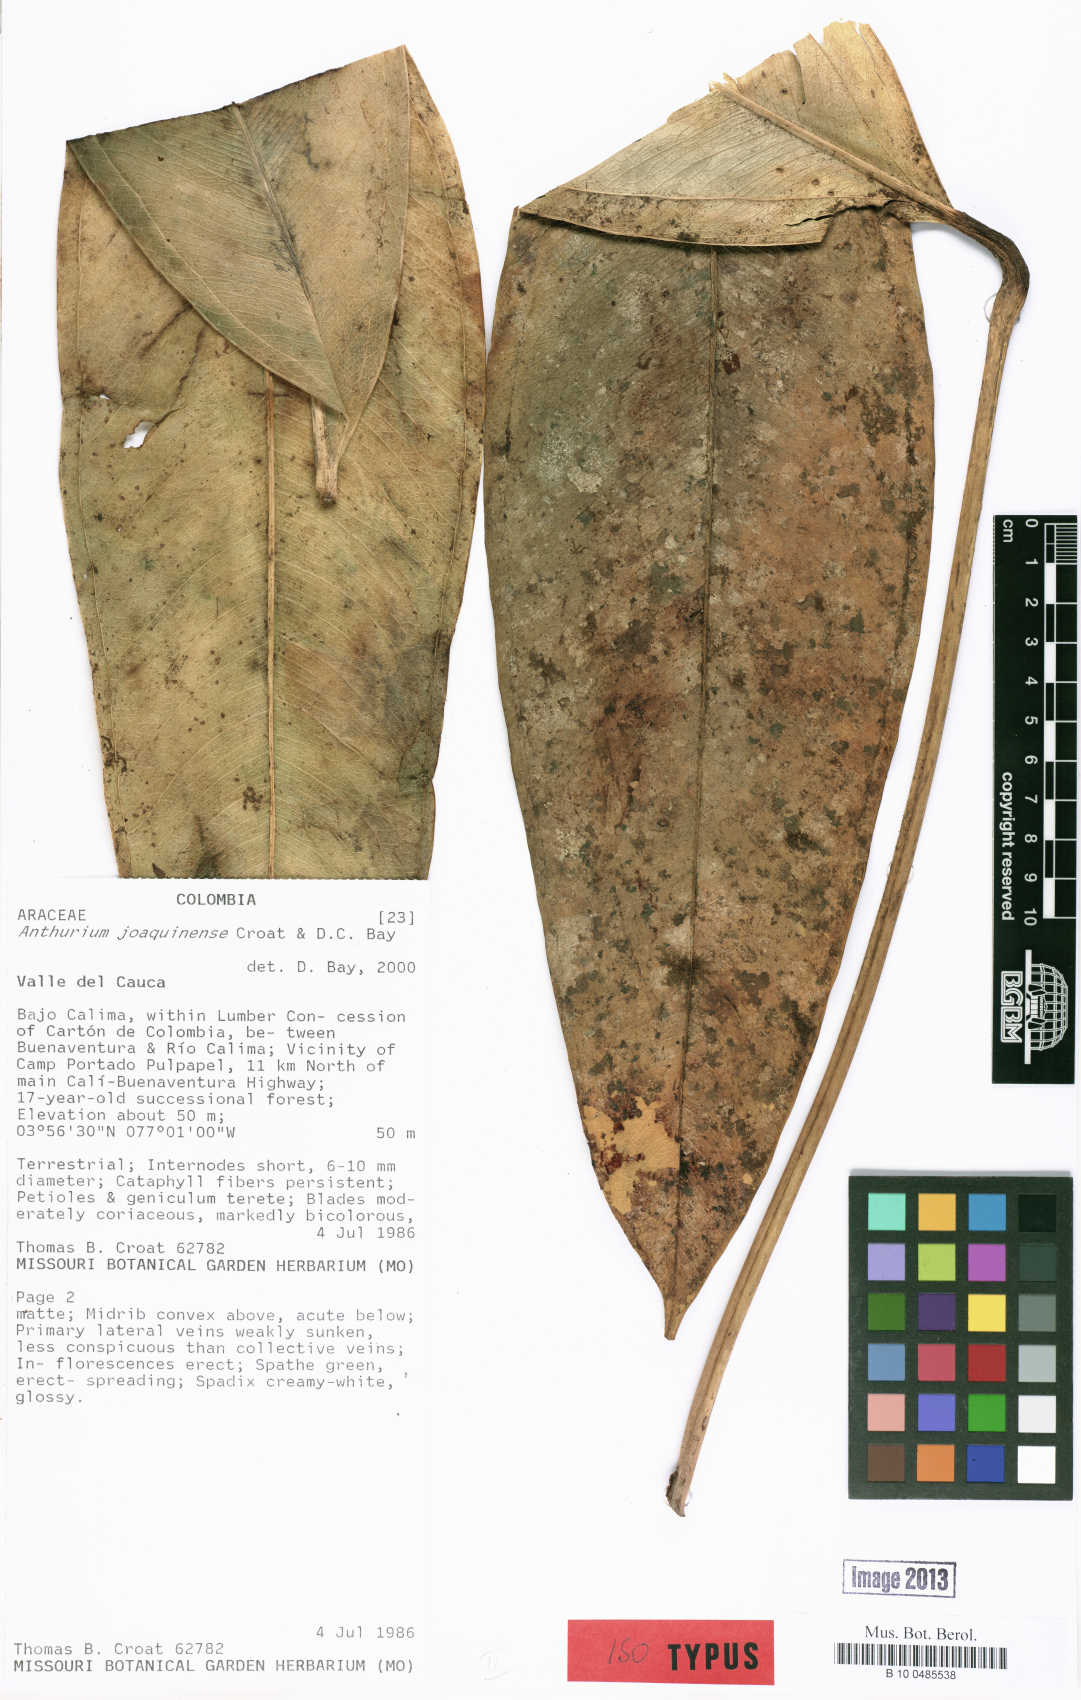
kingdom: Plantae
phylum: Tracheophyta
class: Liliopsida
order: Alismatales
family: Araceae
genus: Anthurium
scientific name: Anthurium joaquinense
